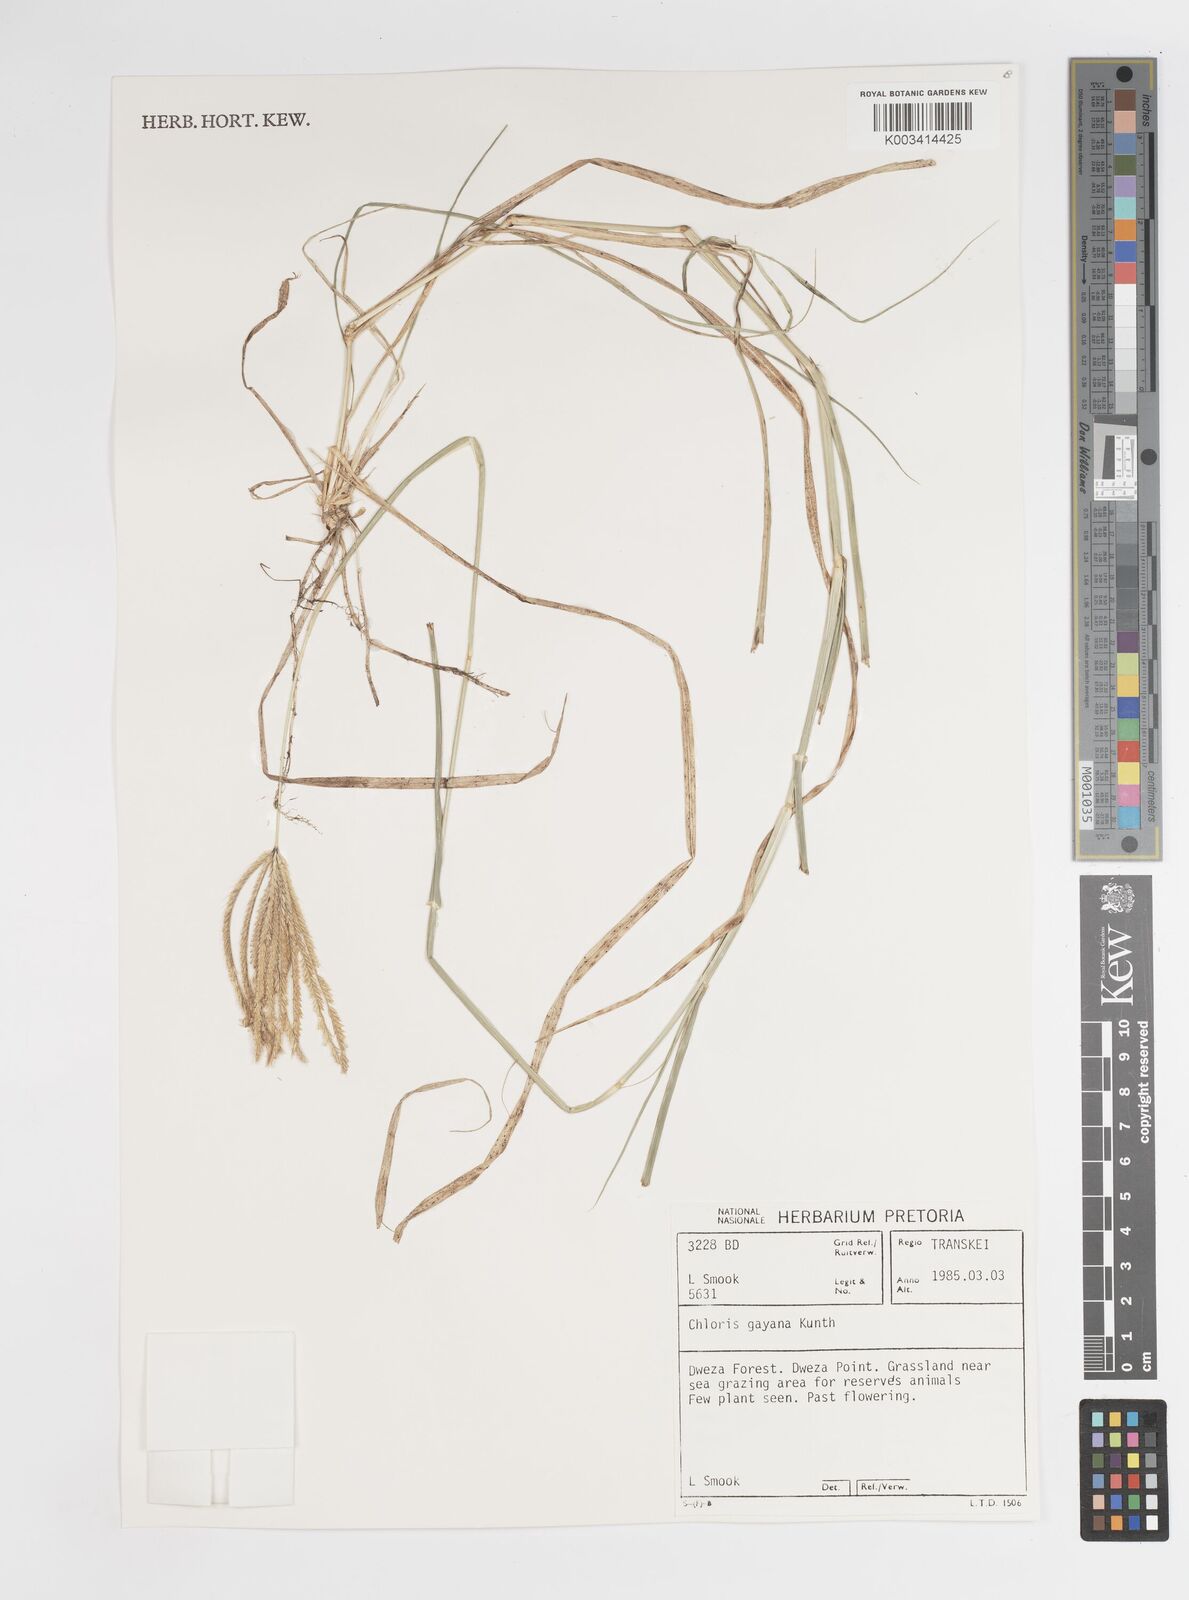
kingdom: Plantae
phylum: Tracheophyta
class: Liliopsida
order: Poales
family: Poaceae
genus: Chloris
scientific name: Chloris gayana
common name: Rhodes grass
